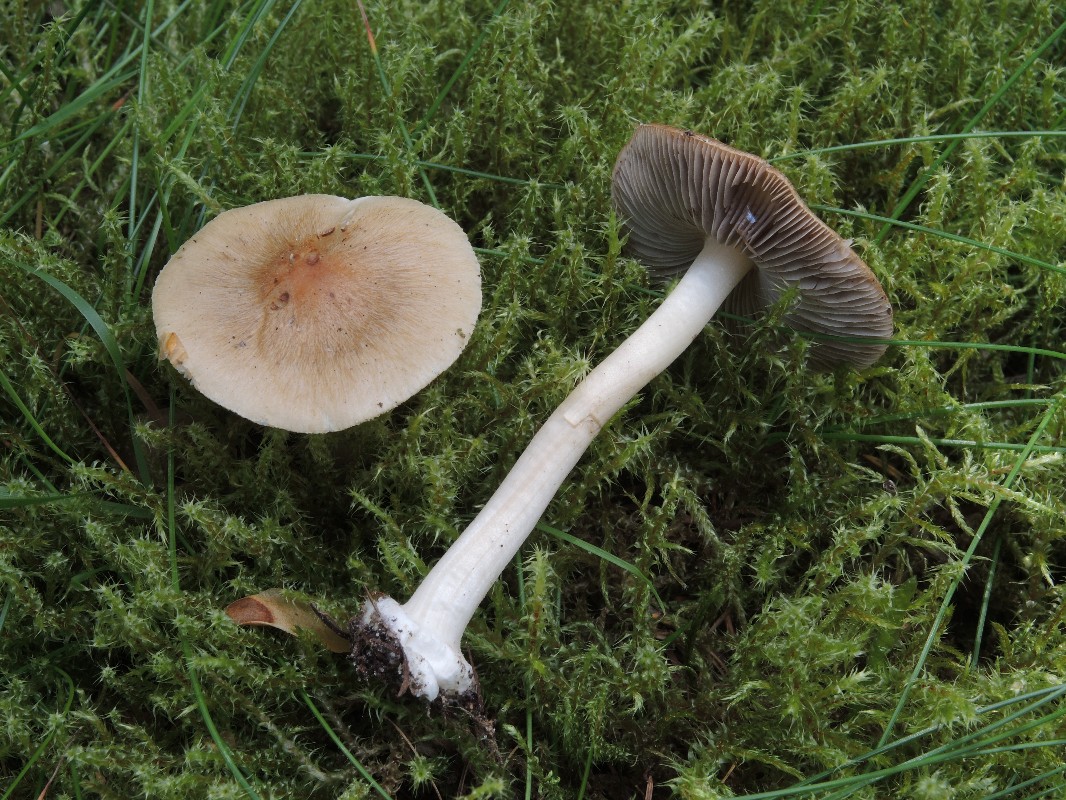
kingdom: Fungi
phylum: Basidiomycota
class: Agaricomycetes
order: Agaricales
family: Inocybaceae
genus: Inocybe
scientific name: Inocybe mixtilis
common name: randknoldet trævlhat
